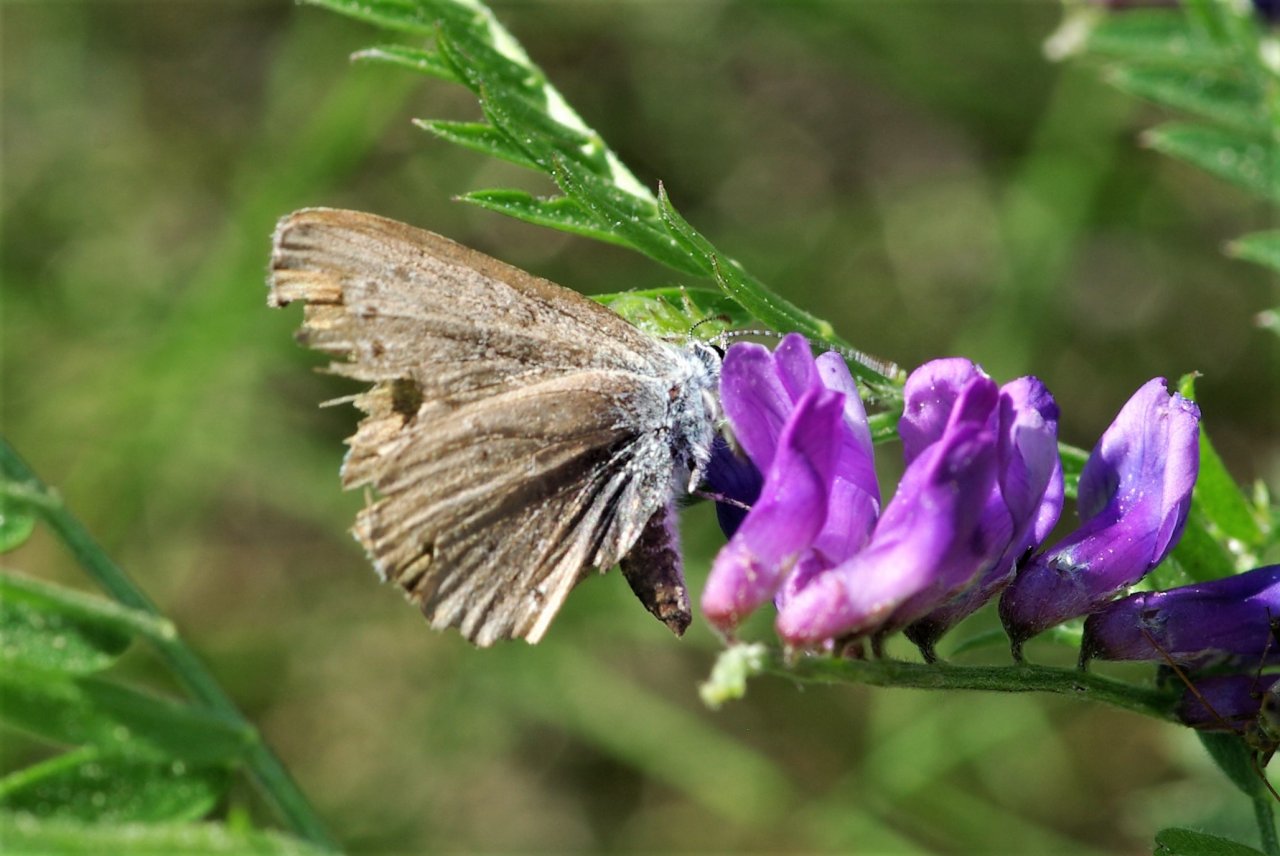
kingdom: Animalia
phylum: Arthropoda
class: Insecta
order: Lepidoptera
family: Lycaenidae
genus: Glaucopsyche
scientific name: Glaucopsyche lygdamus
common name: Silvery Blue
